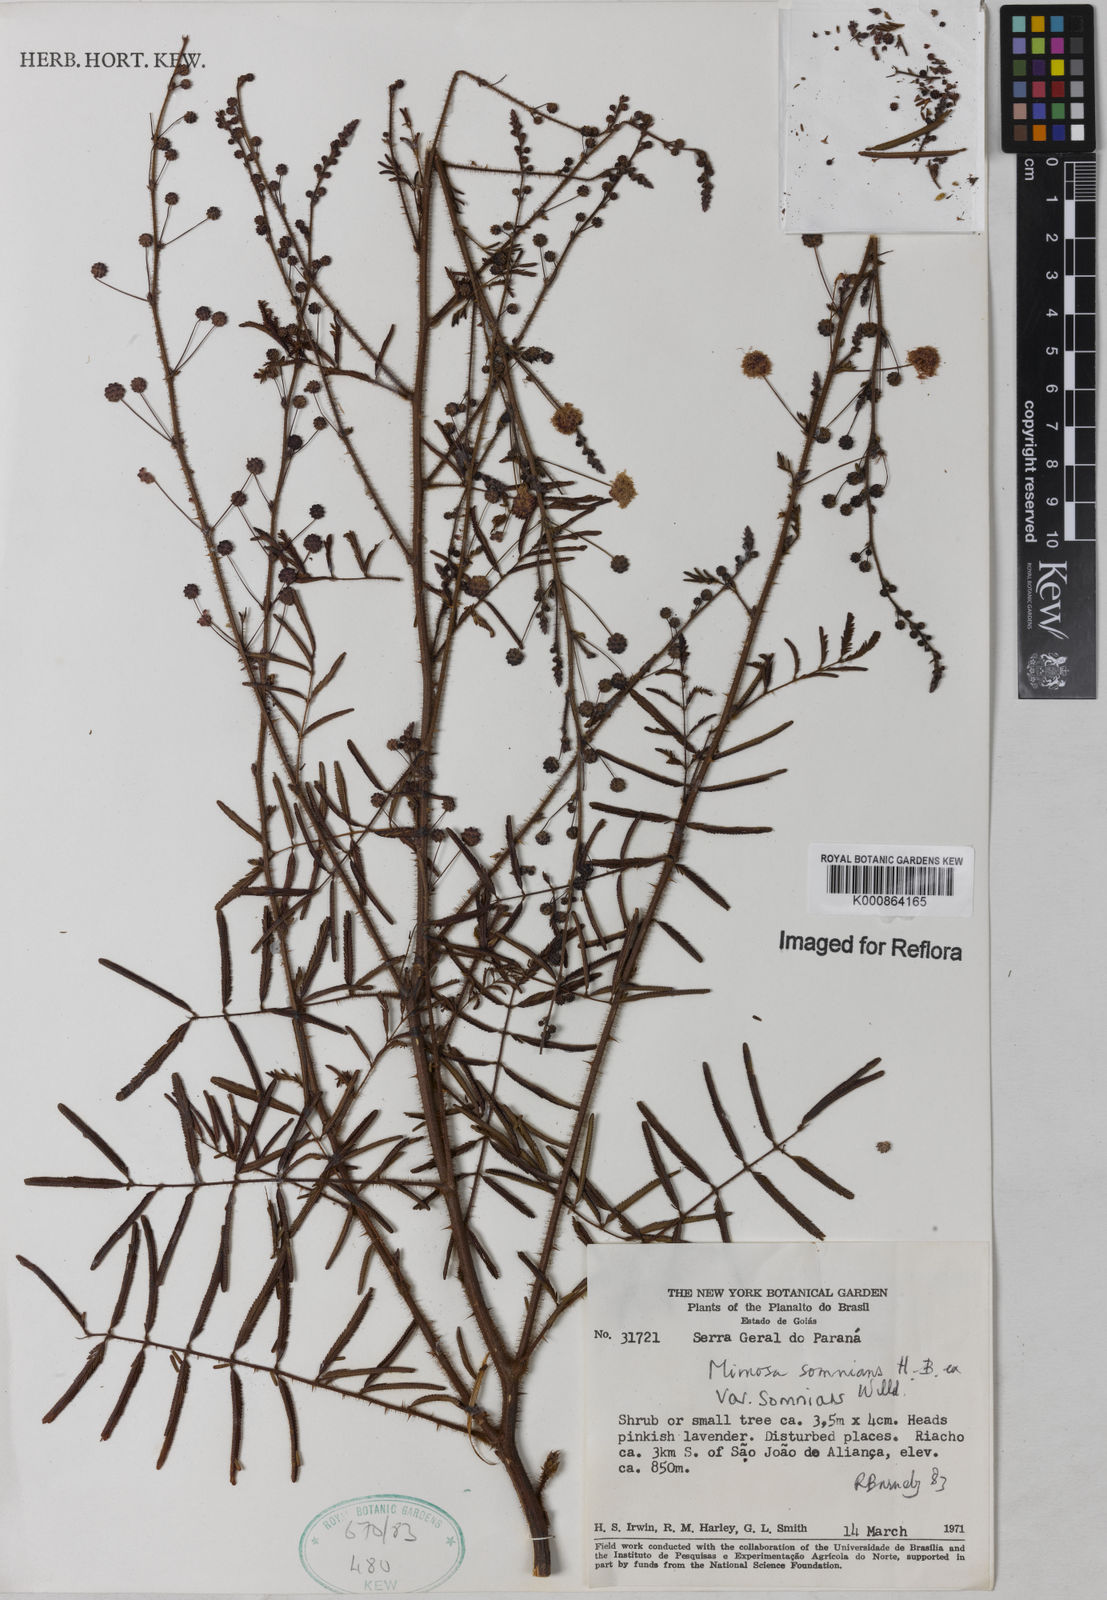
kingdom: Plantae
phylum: Tracheophyta
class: Magnoliopsida
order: Fabales
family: Fabaceae
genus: Mimosa
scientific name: Mimosa somnians
